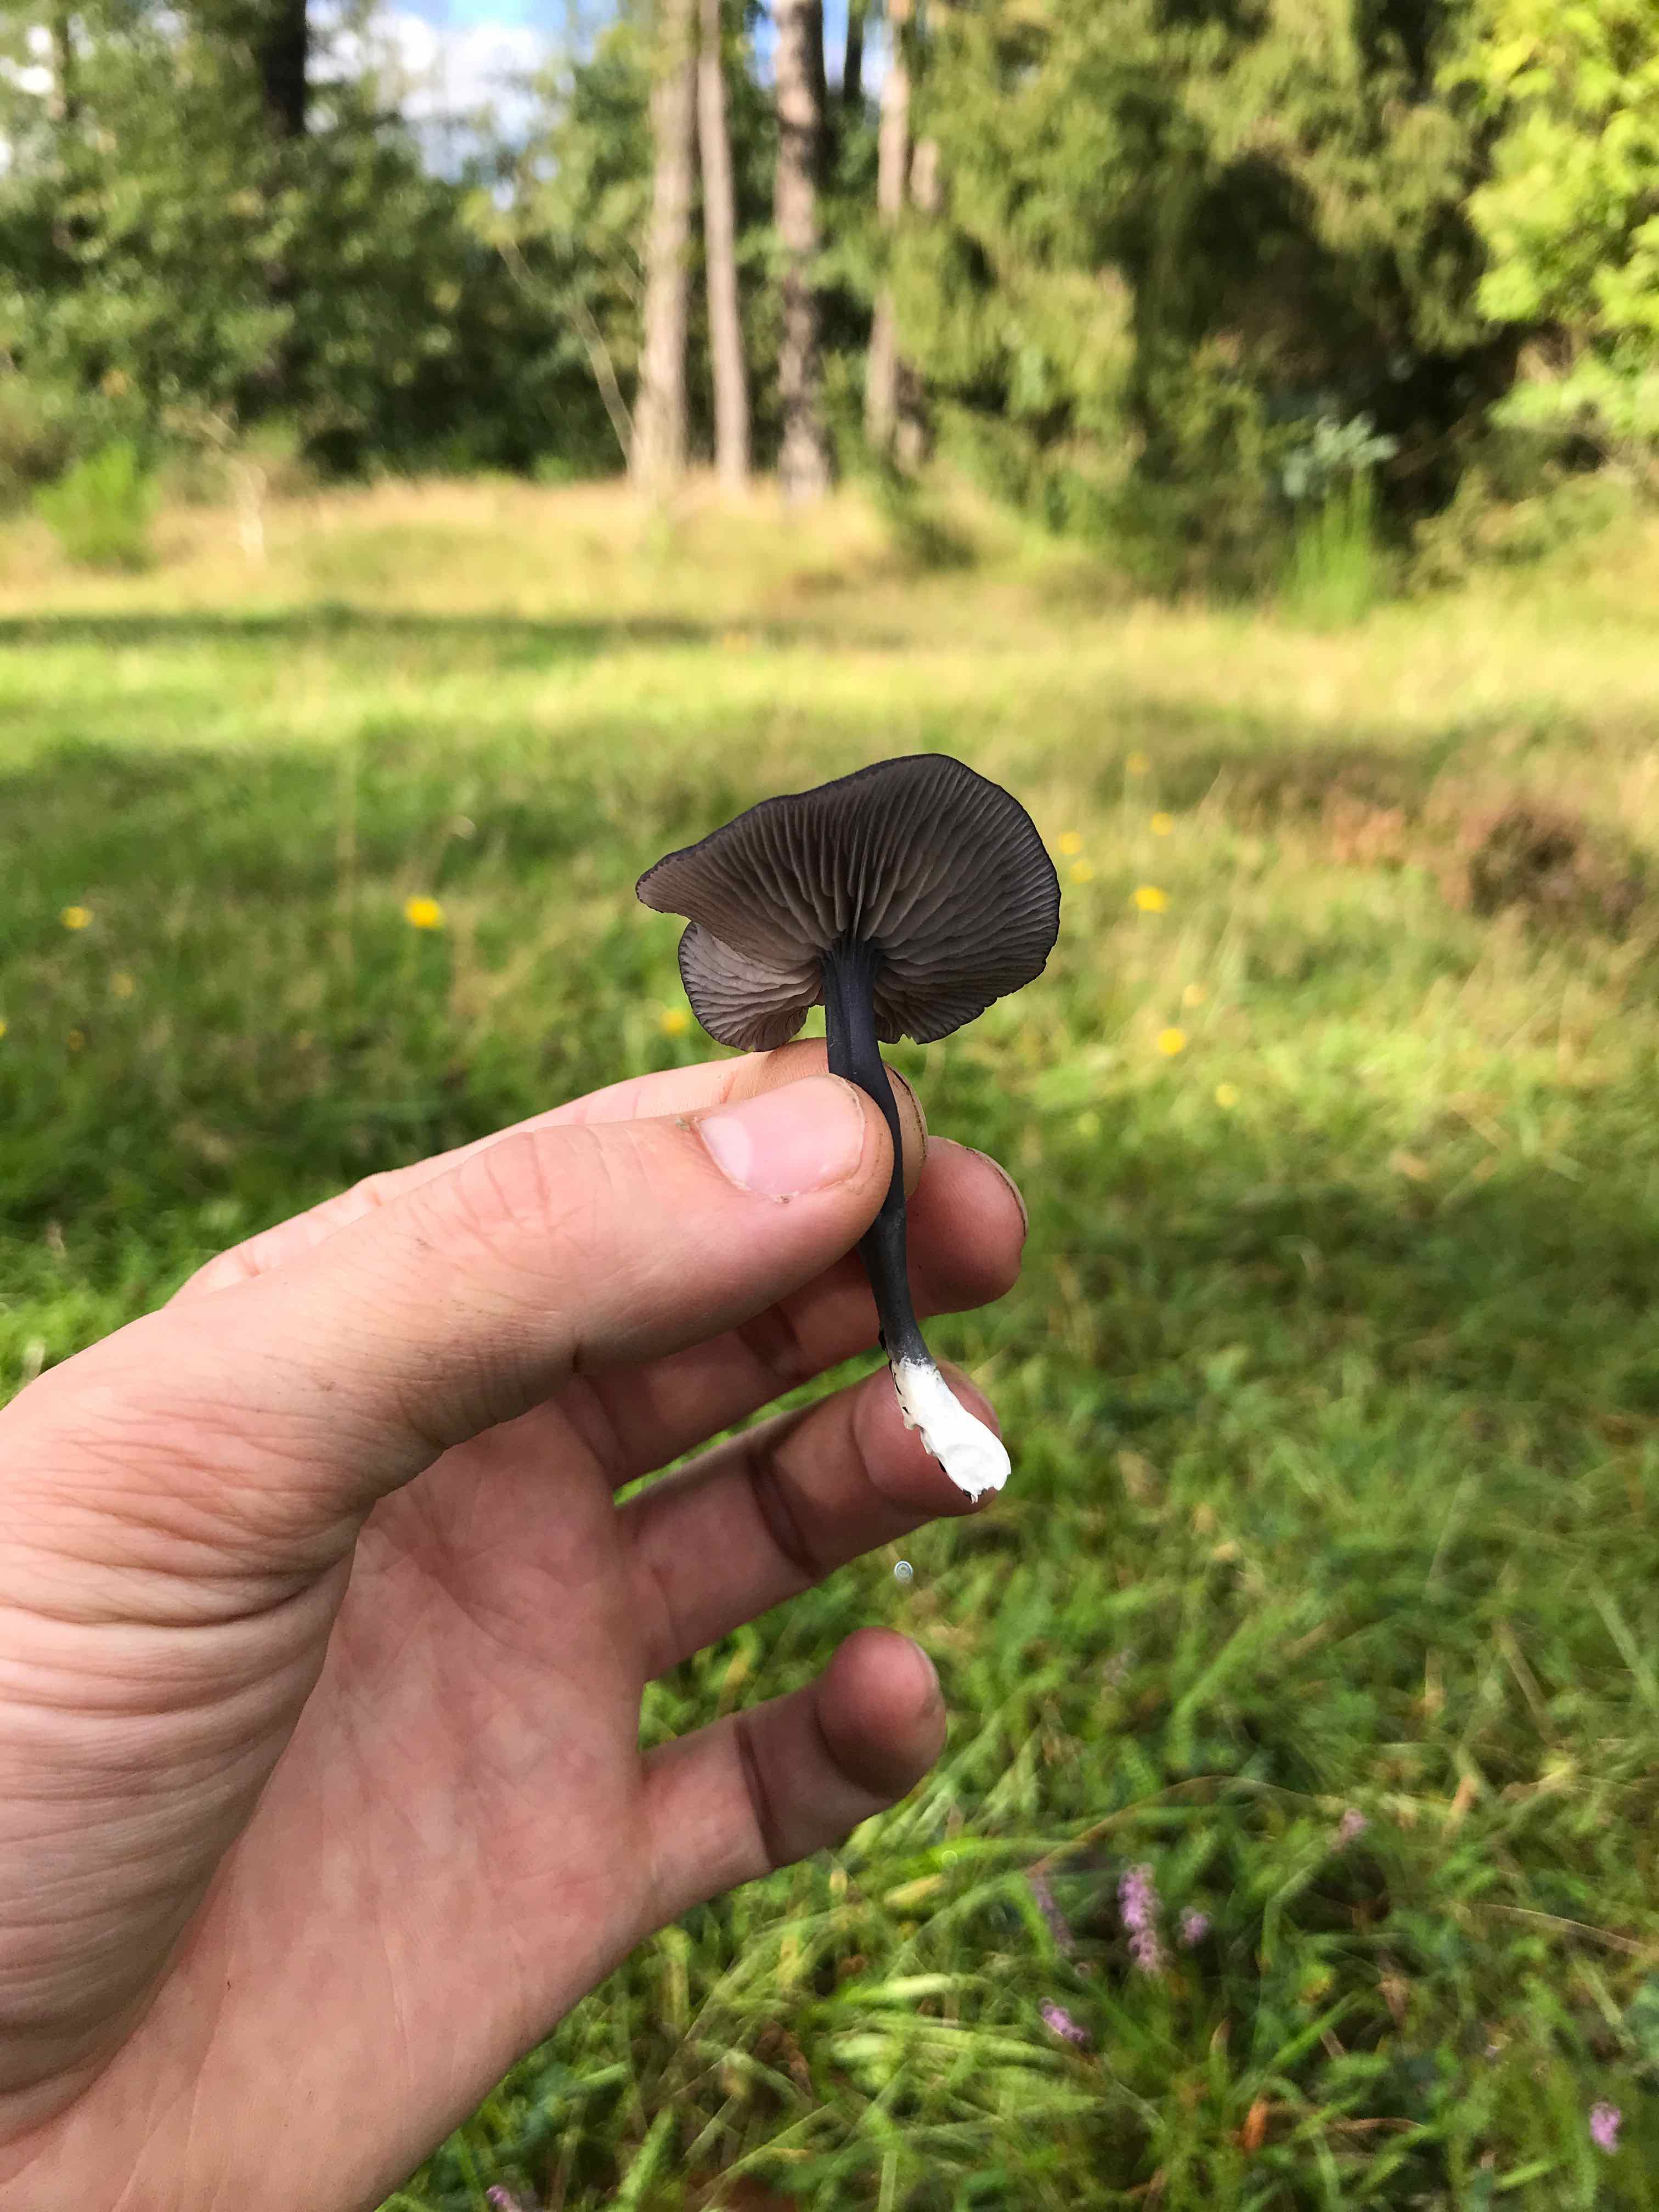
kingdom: Fungi
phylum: Basidiomycota
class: Agaricomycetes
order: Agaricales
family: Entolomataceae
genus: Entoloma
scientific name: Entoloma
